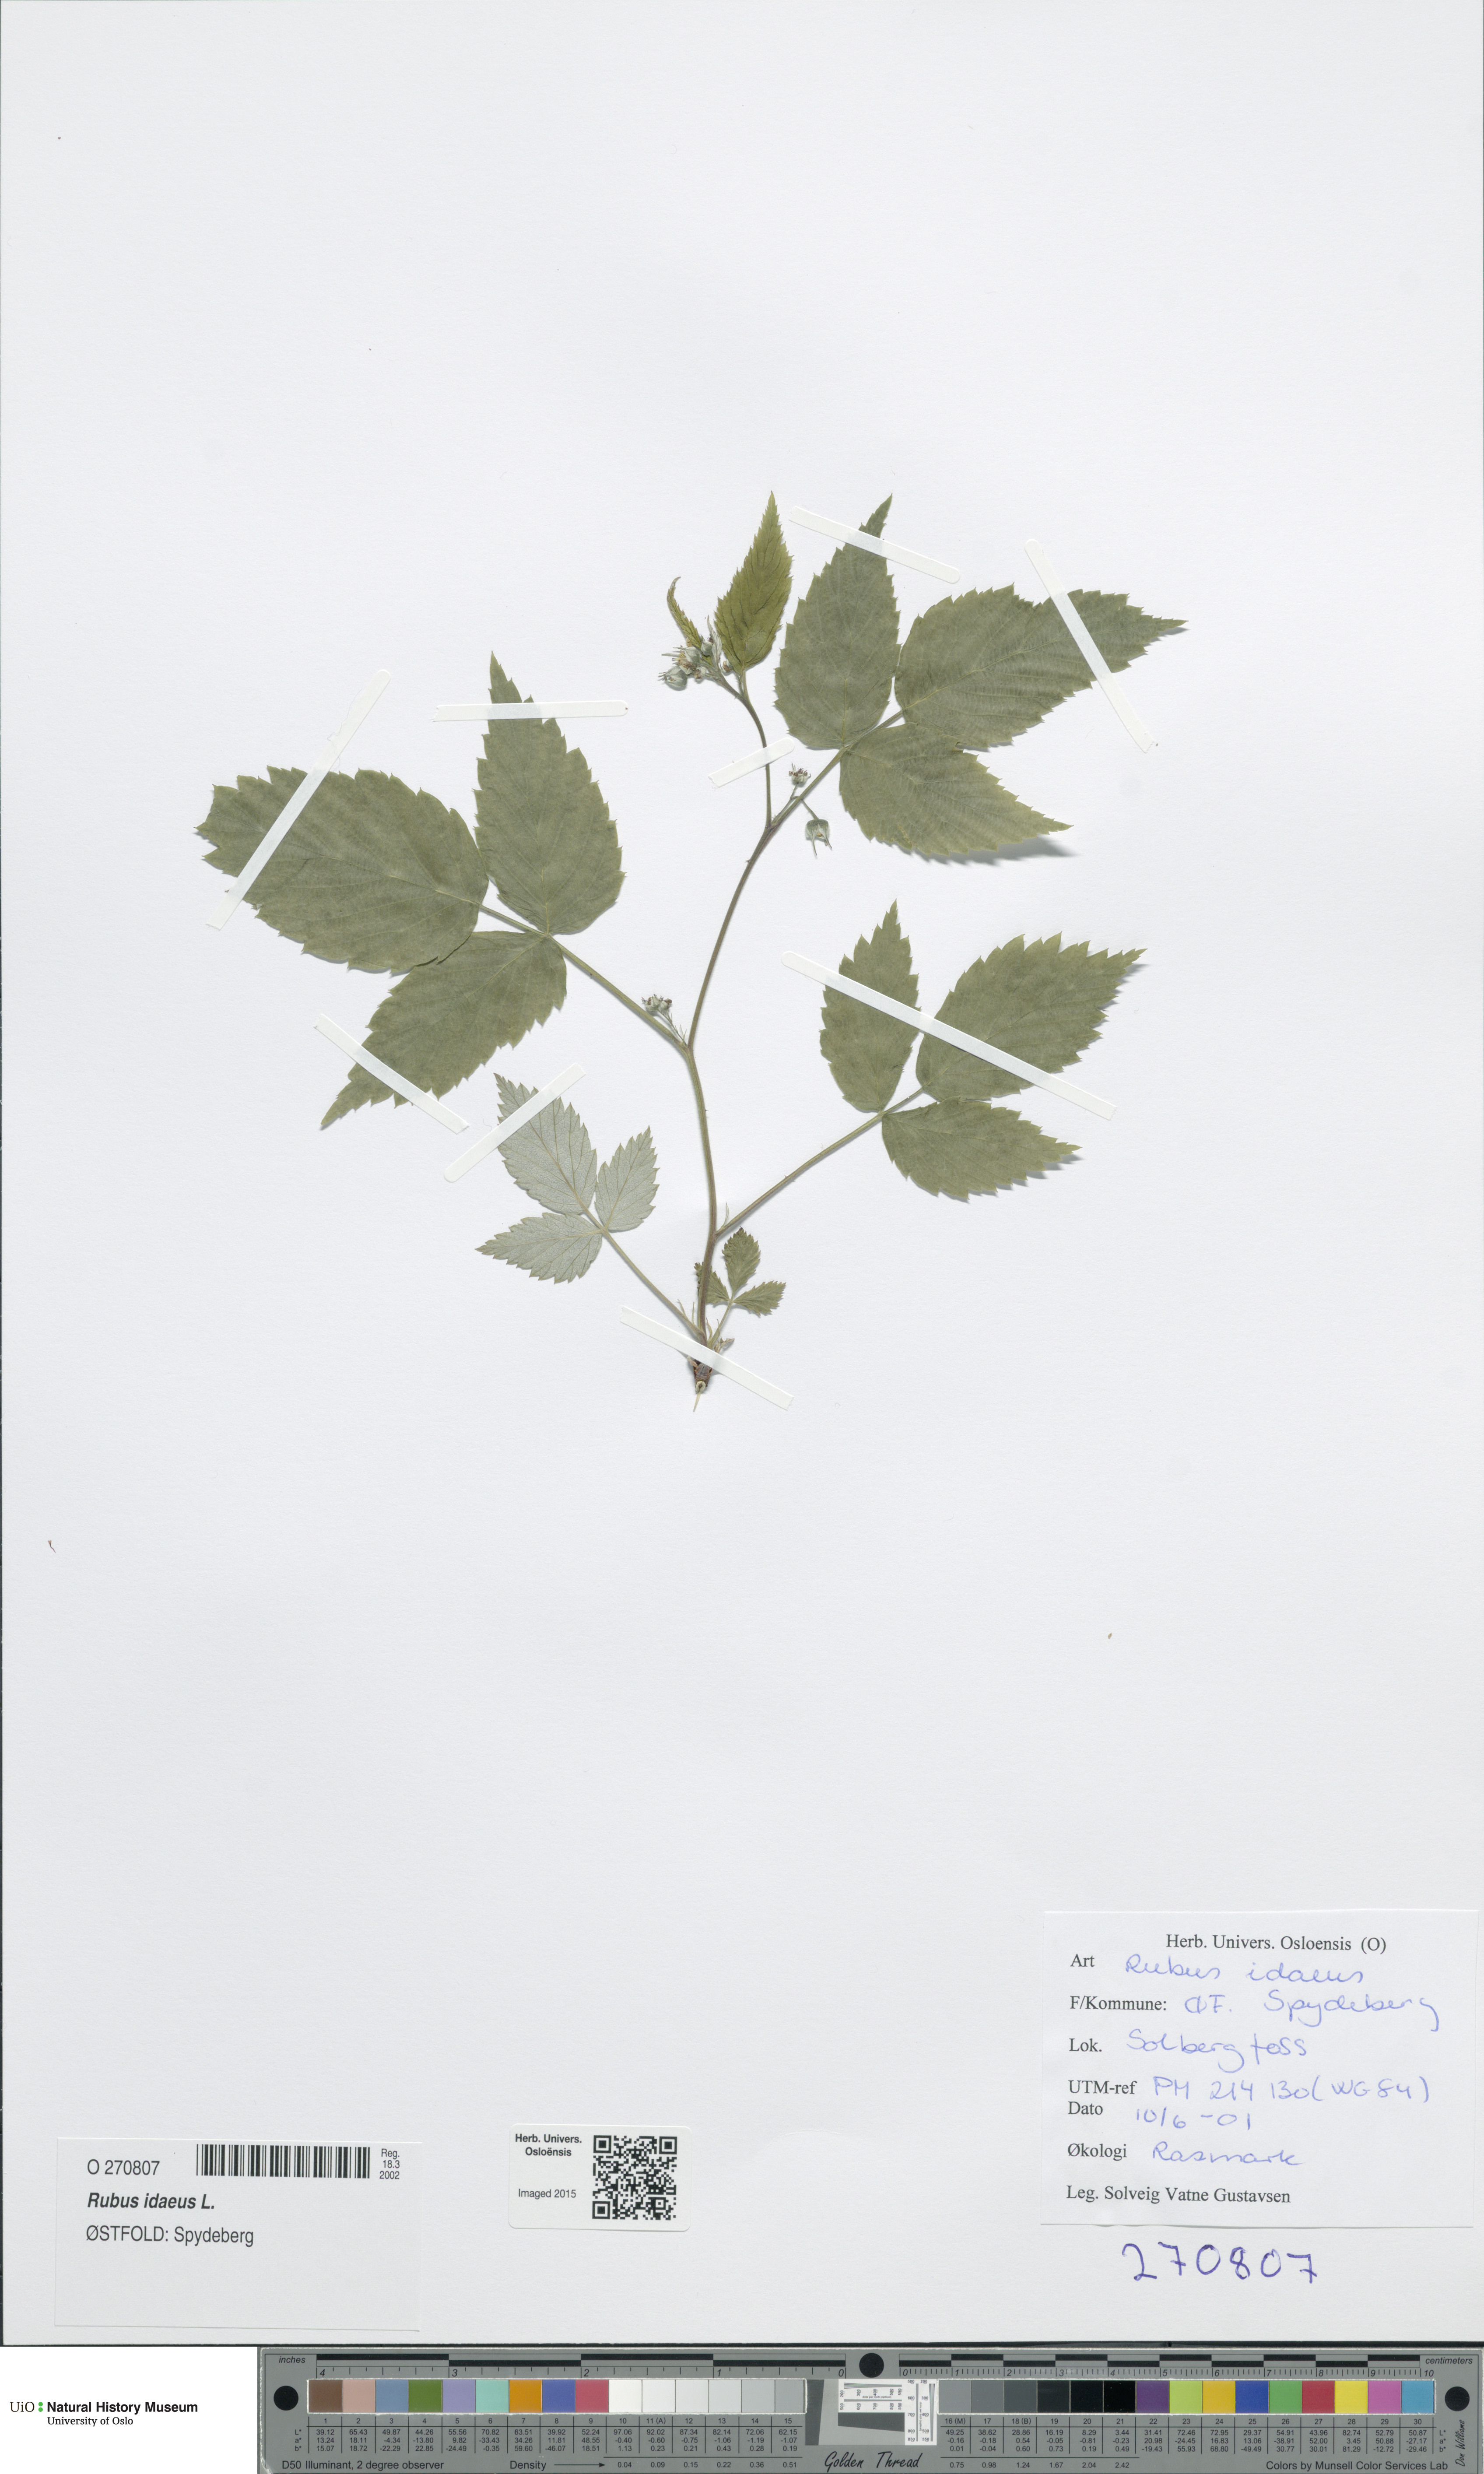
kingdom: Plantae
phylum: Tracheophyta
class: Magnoliopsida
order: Rosales
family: Rosaceae
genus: Rubus
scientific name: Rubus idaeus
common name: Raspberry
